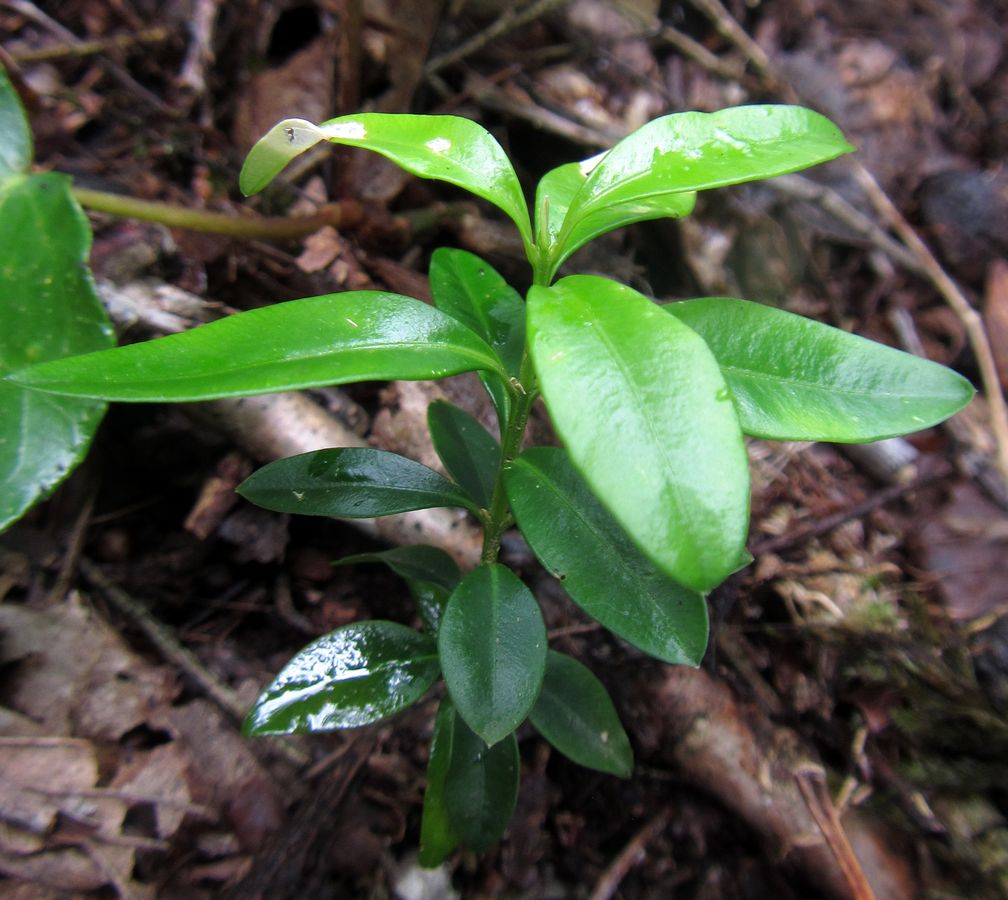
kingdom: Plantae
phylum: Tracheophyta
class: Magnoliopsida
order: Buxales
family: Buxaceae
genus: Buxus
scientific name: Buxus sempervirens
